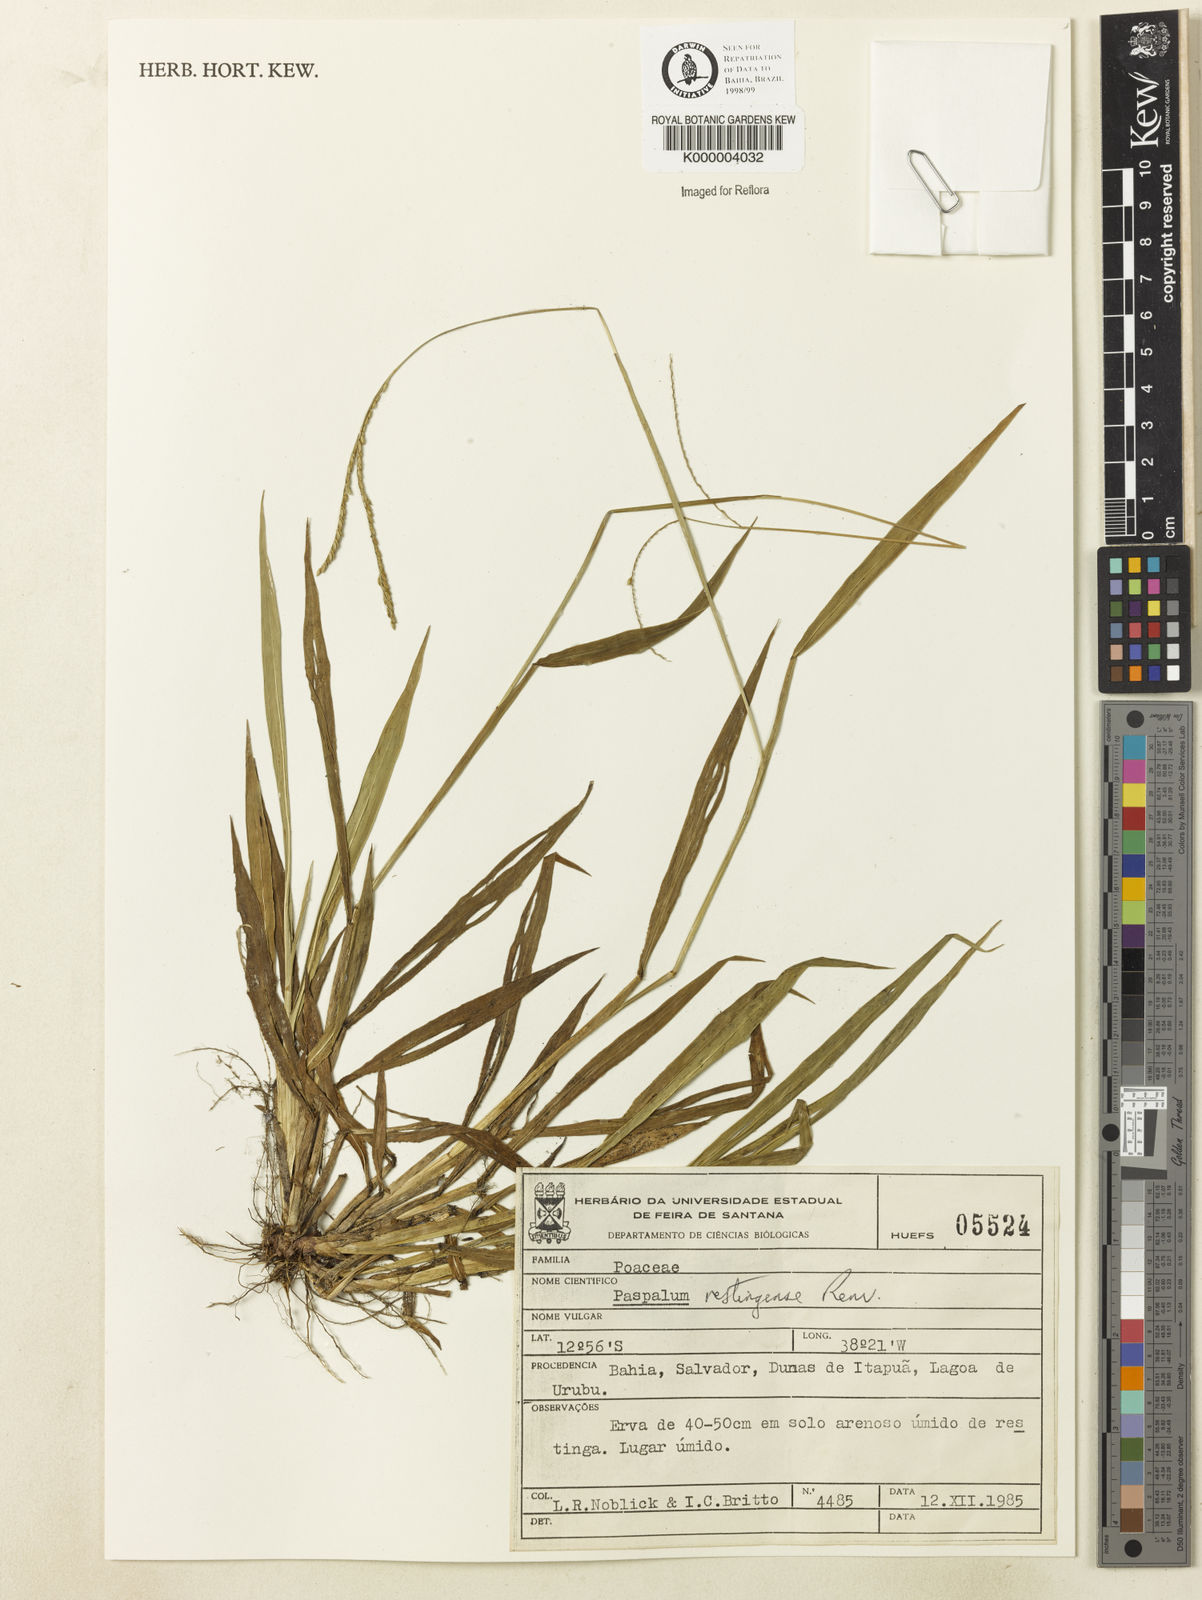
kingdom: Plantae
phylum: Tracheophyta
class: Liliopsida
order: Poales
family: Poaceae
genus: Paspalum
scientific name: Paspalum restingense
